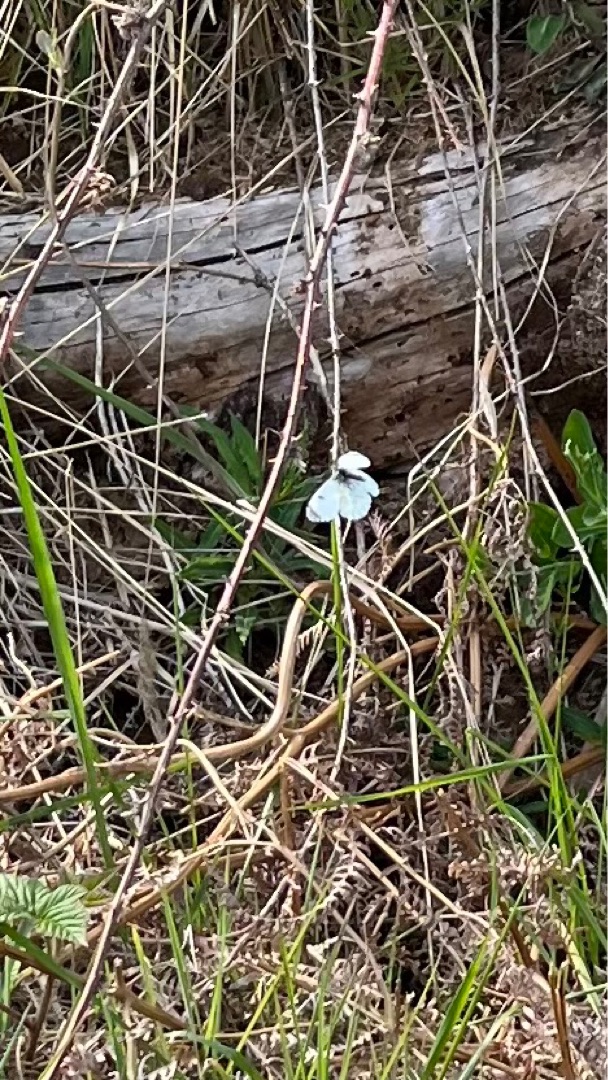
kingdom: Animalia
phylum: Arthropoda
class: Insecta
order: Lepidoptera
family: Pieridae
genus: Anthocharis
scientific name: Anthocharis cardamines
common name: Aurora
